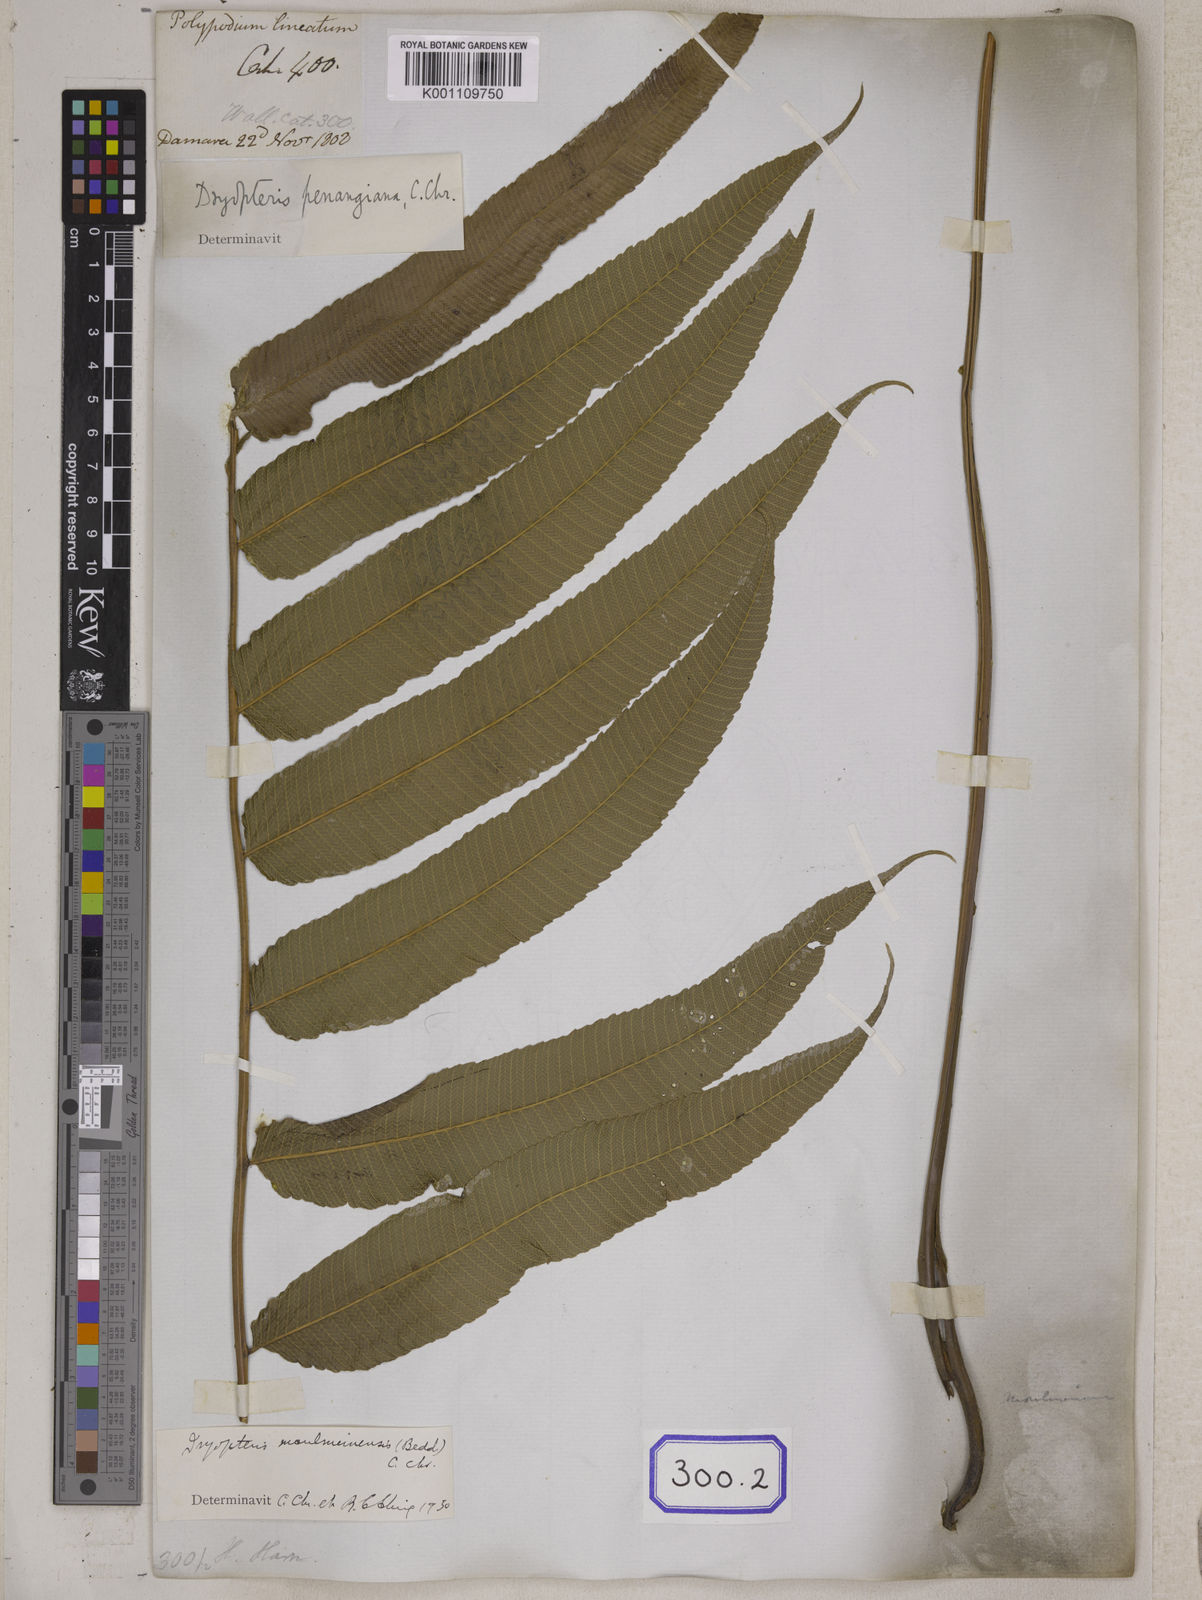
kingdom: Plantae
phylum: Tracheophyta
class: Polypodiopsida
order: Polypodiales
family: Polypodiaceae
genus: Polypodium
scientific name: Polypodium
